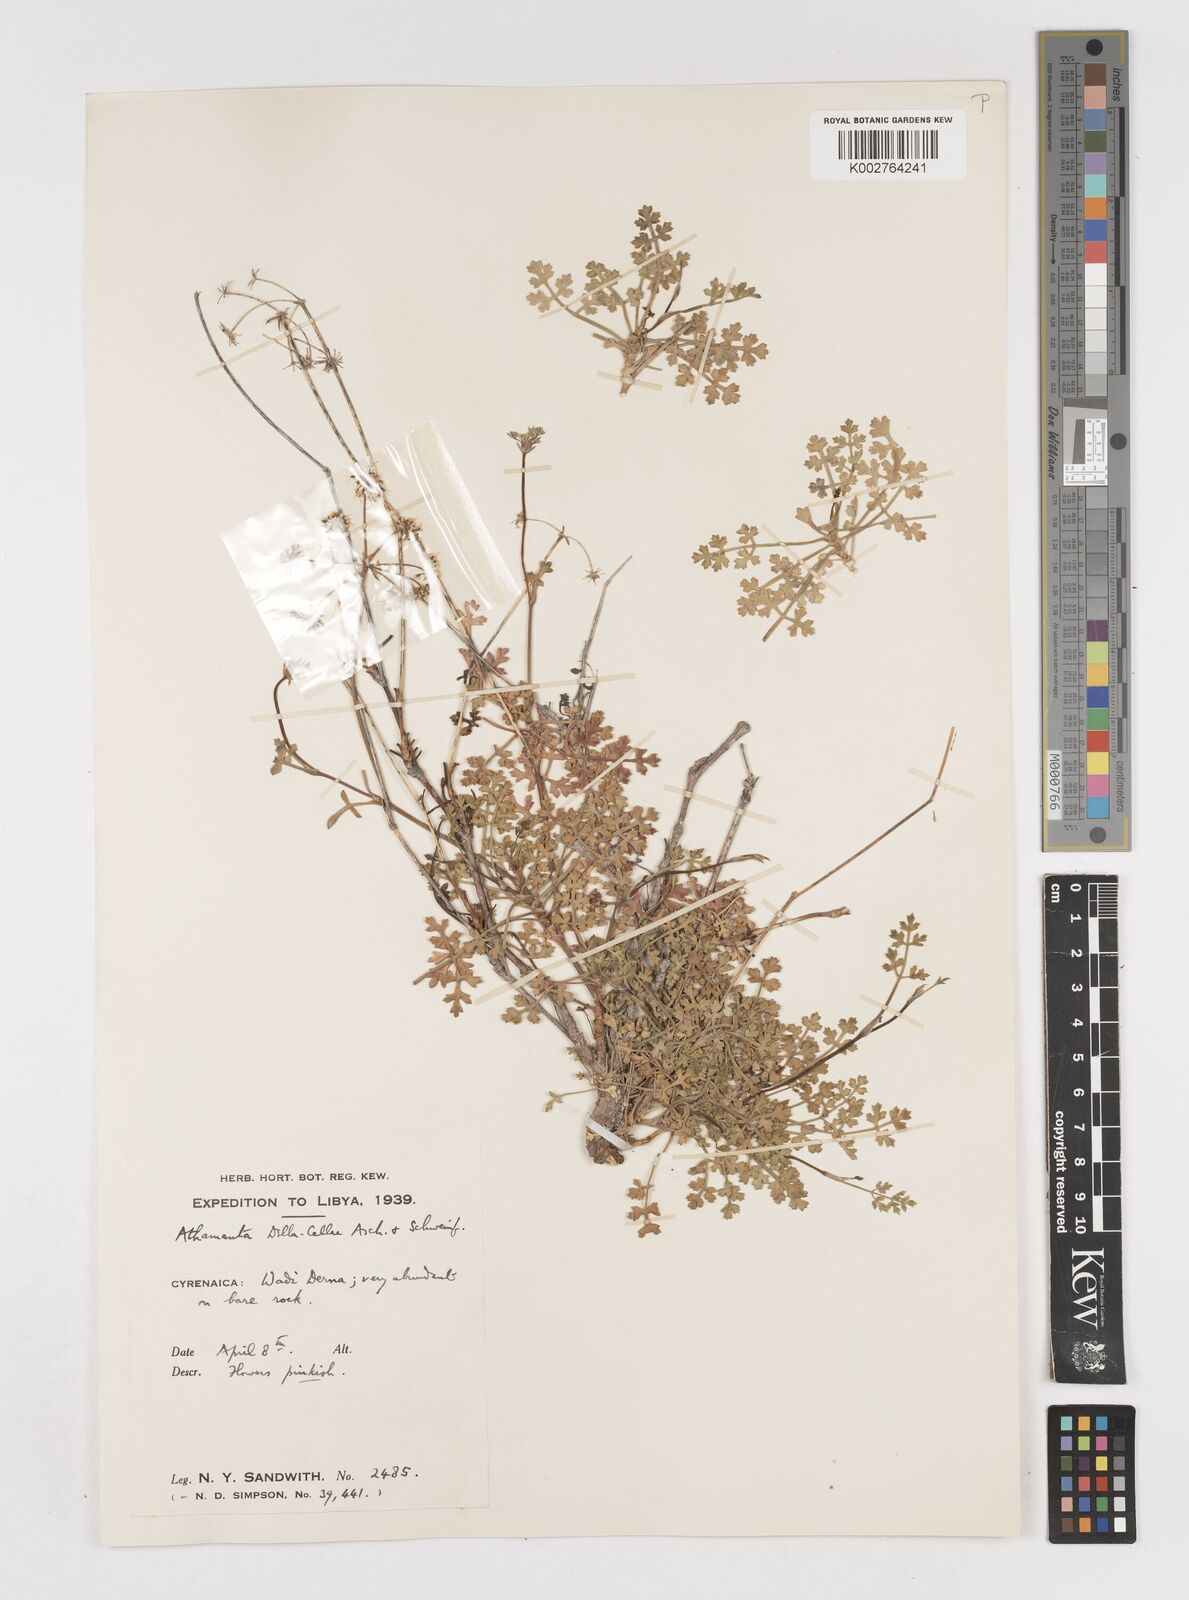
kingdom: Plantae
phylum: Tracheophyta
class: Magnoliopsida
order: Apiales
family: Apiaceae
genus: Daucus
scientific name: Daucus della-cellae
